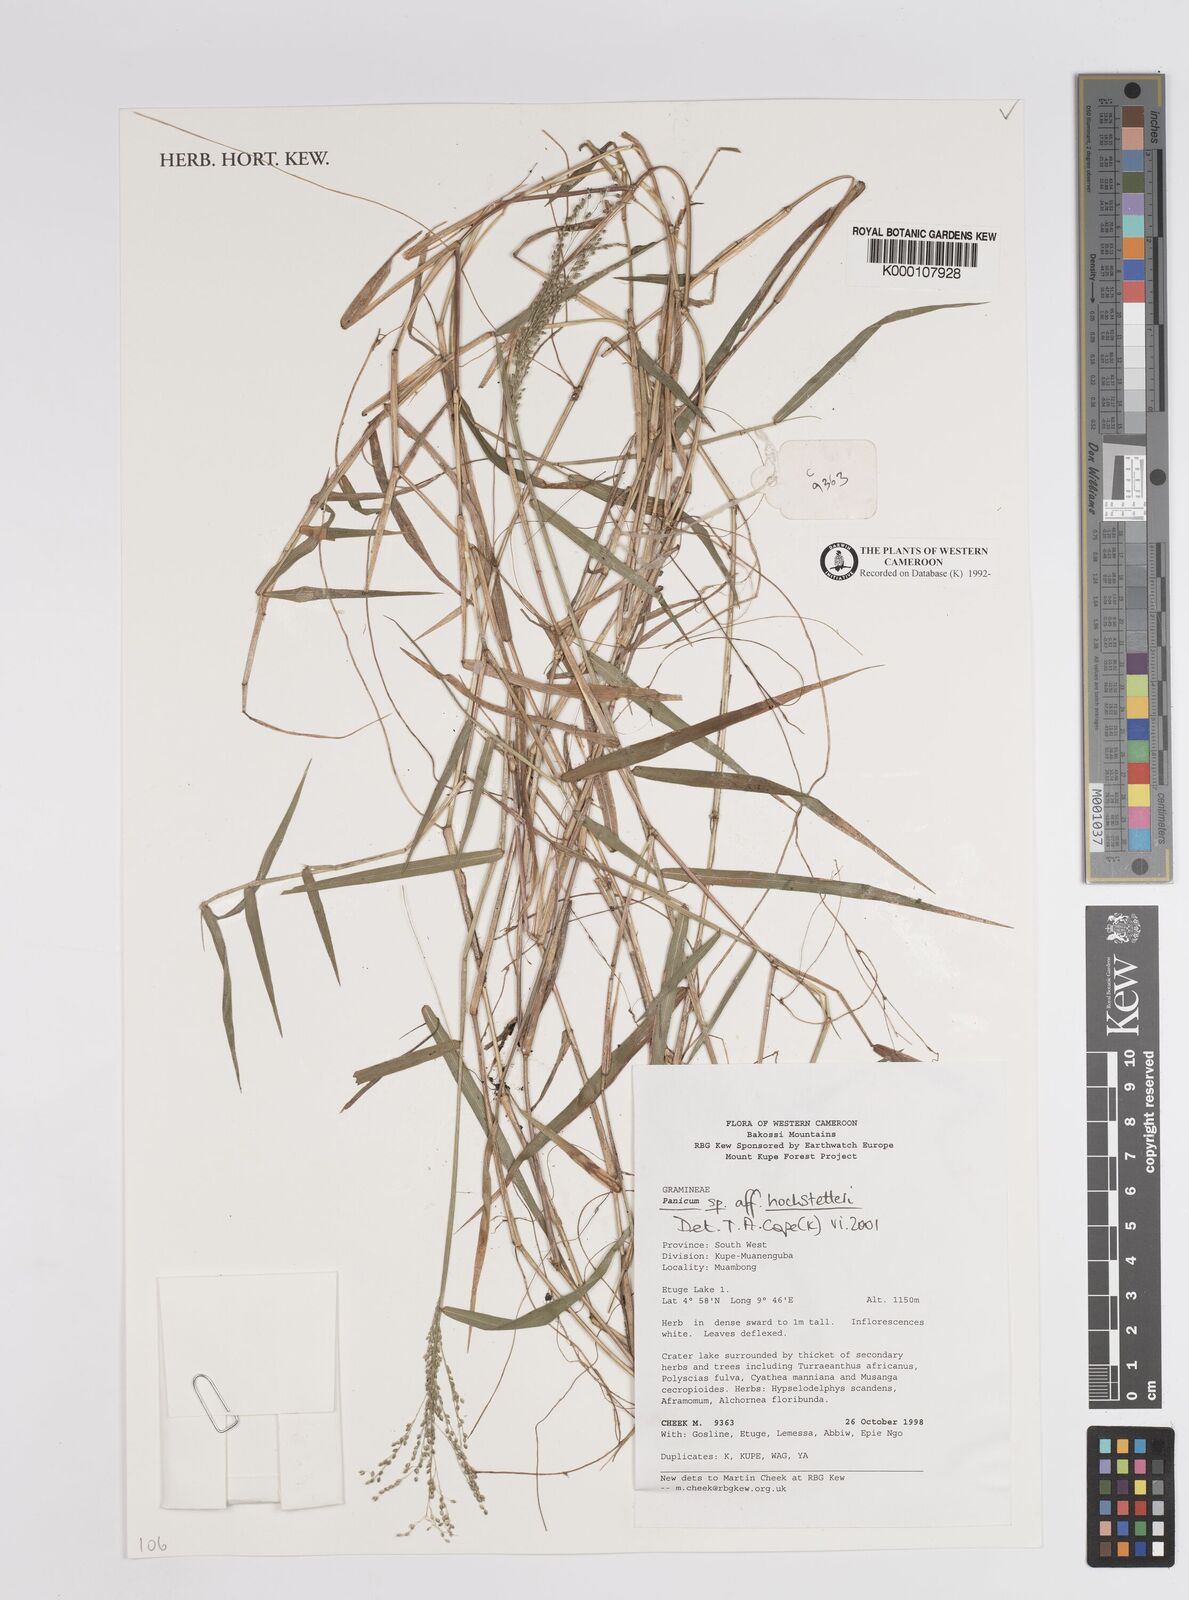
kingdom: Plantae
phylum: Tracheophyta
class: Liliopsida
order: Poales
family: Poaceae
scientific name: Poaceae
